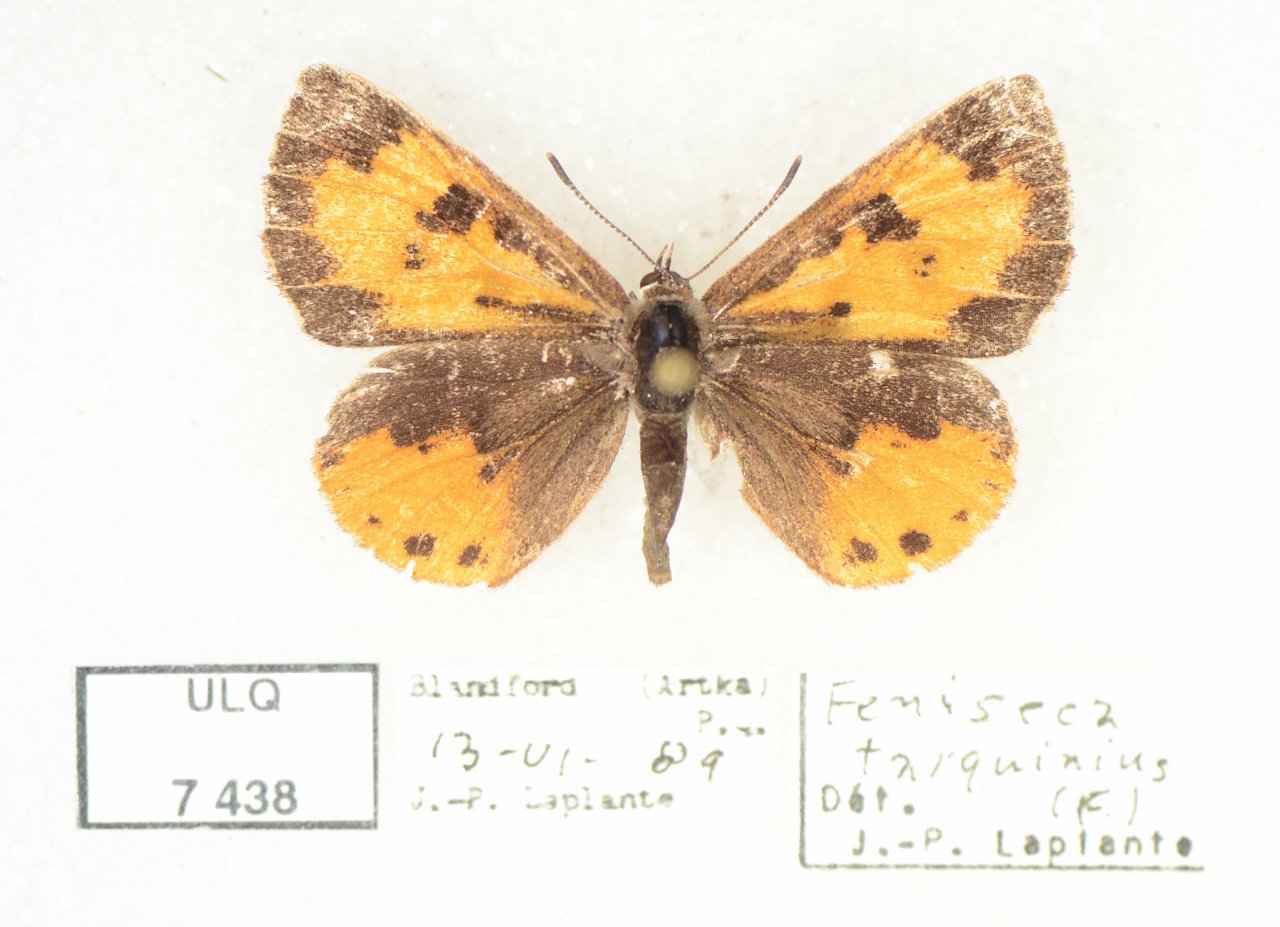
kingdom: Animalia
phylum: Arthropoda
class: Insecta
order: Lepidoptera
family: Lycaenidae
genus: Feniseca
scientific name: Feniseca tarquinius
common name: Harvester
